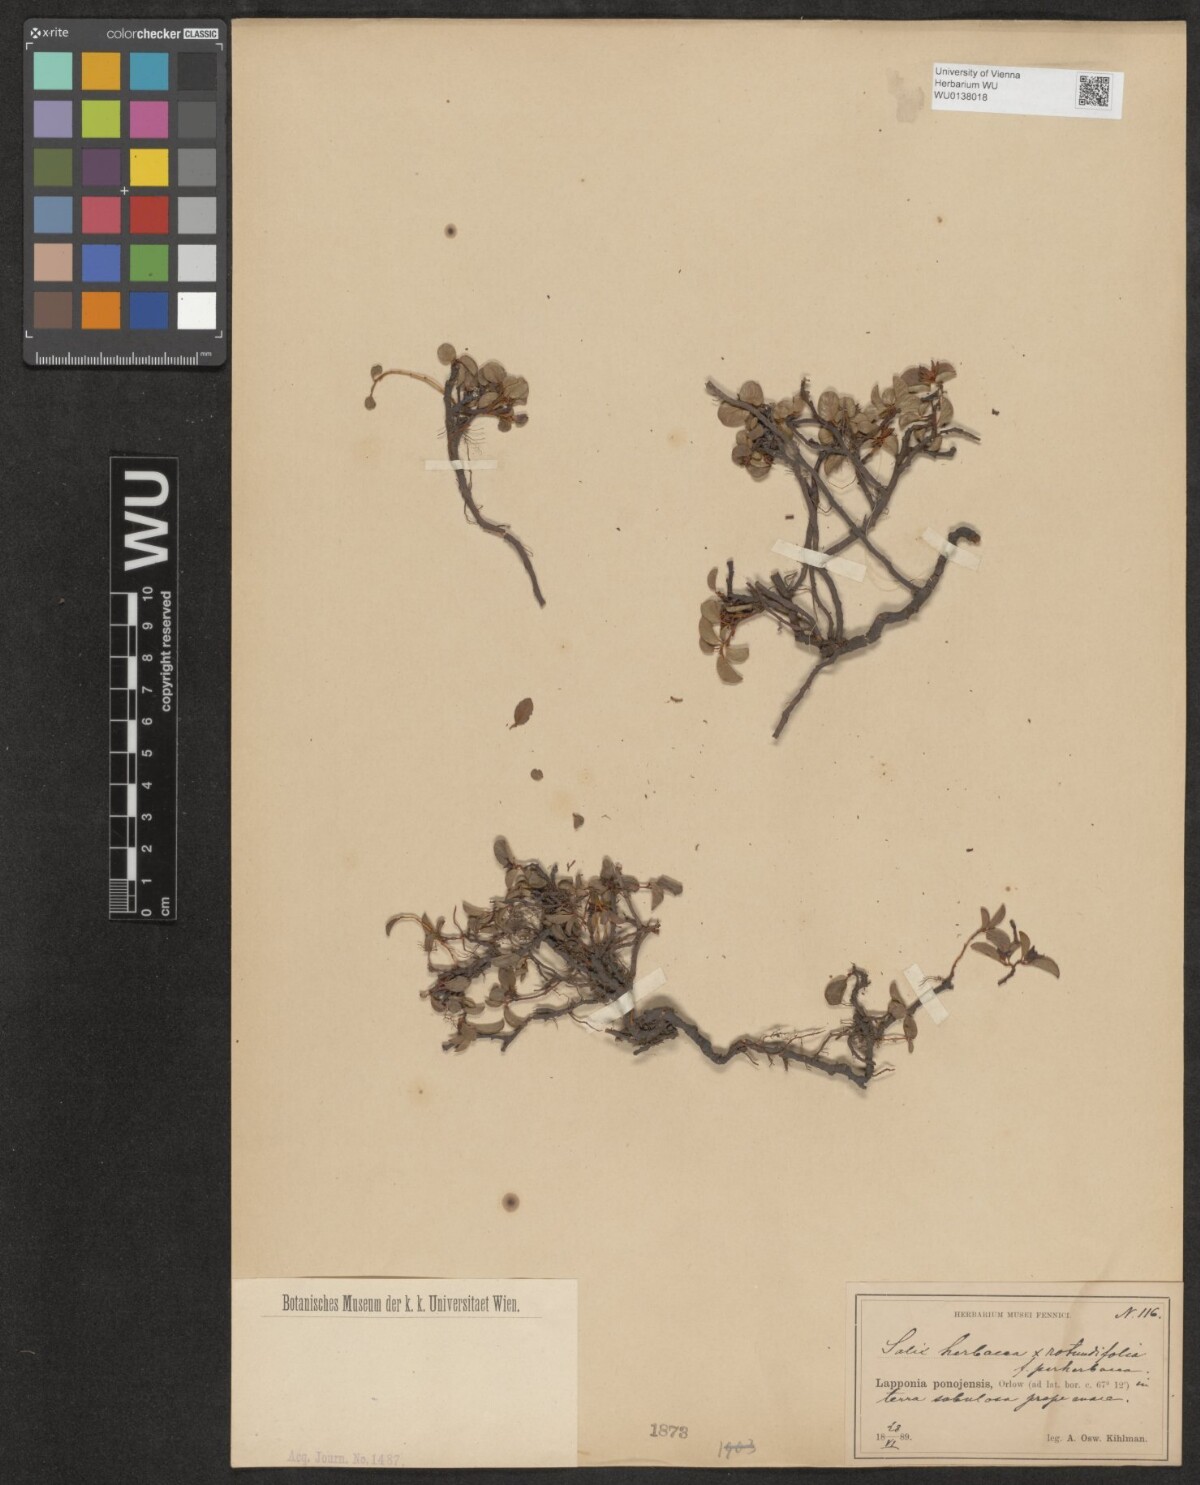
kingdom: Plantae
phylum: Tracheophyta
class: Magnoliopsida
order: Malpighiales
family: Salicaceae
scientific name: Salicaceae
